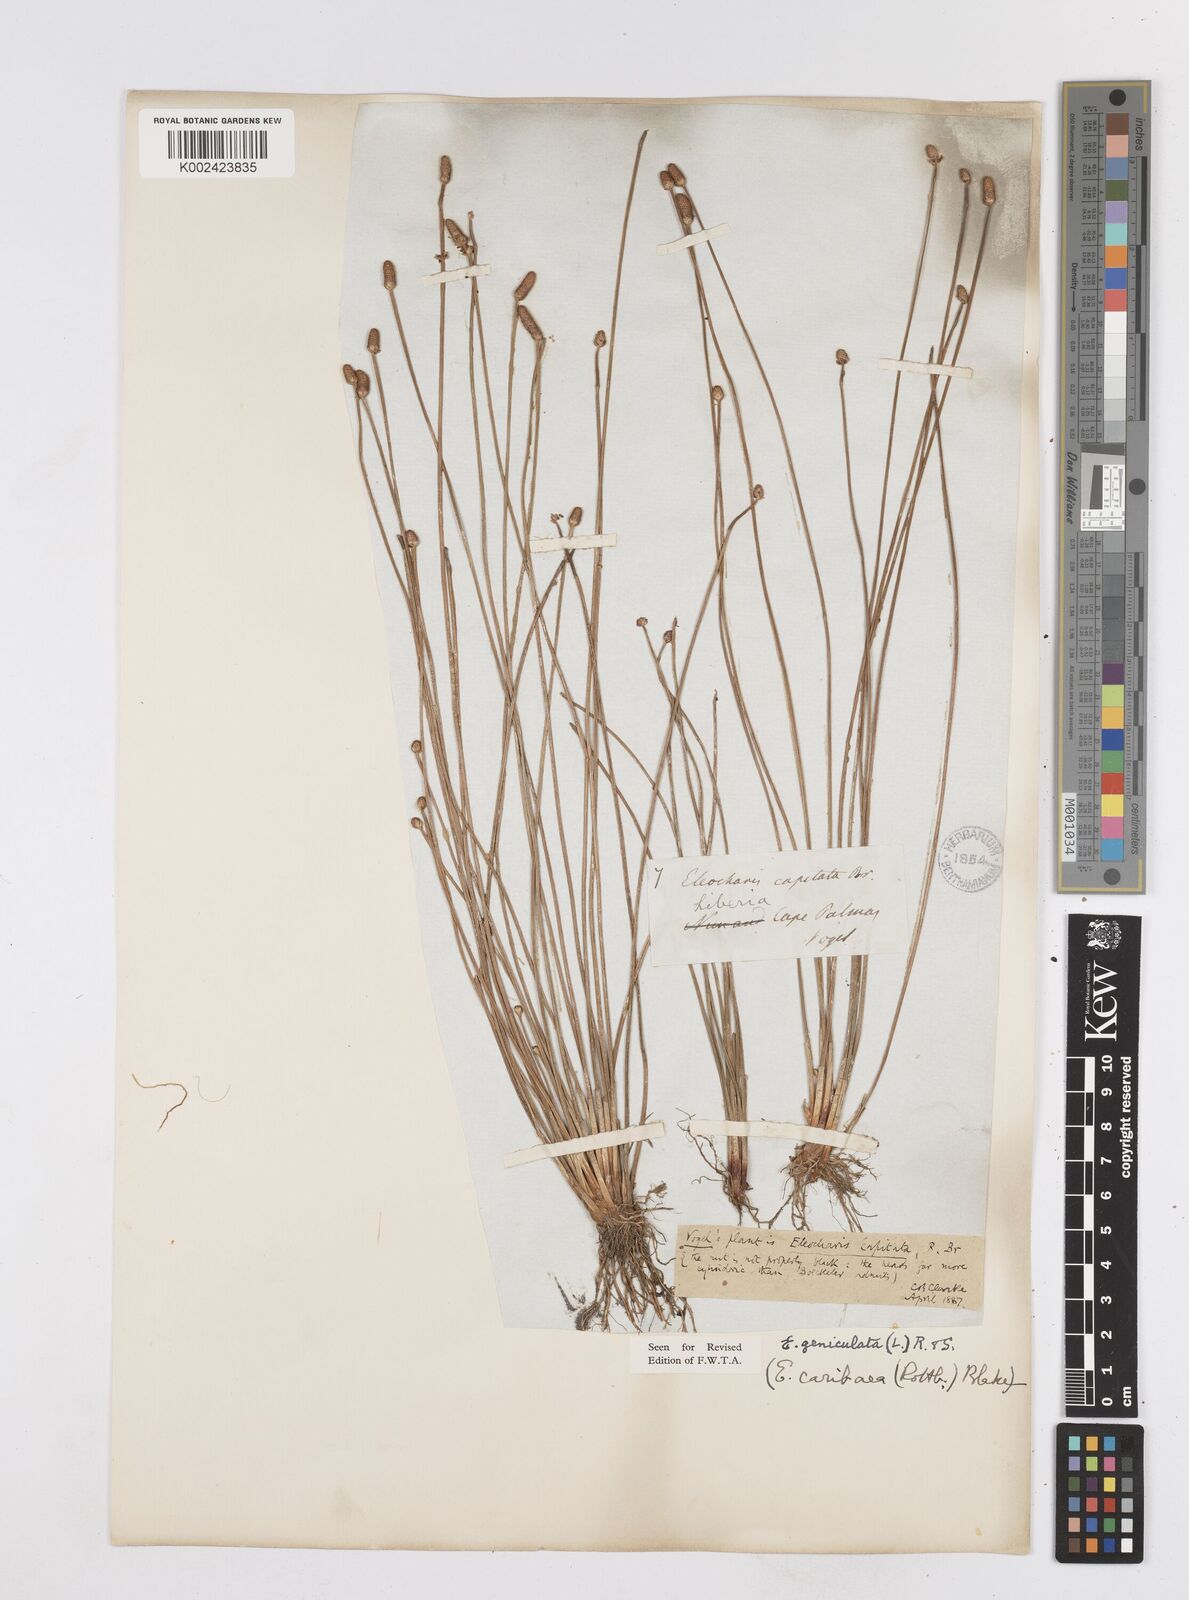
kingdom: Plantae
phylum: Tracheophyta
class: Liliopsida
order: Poales
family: Cyperaceae
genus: Eleocharis
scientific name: Eleocharis geniculata
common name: Canada spikesedge
